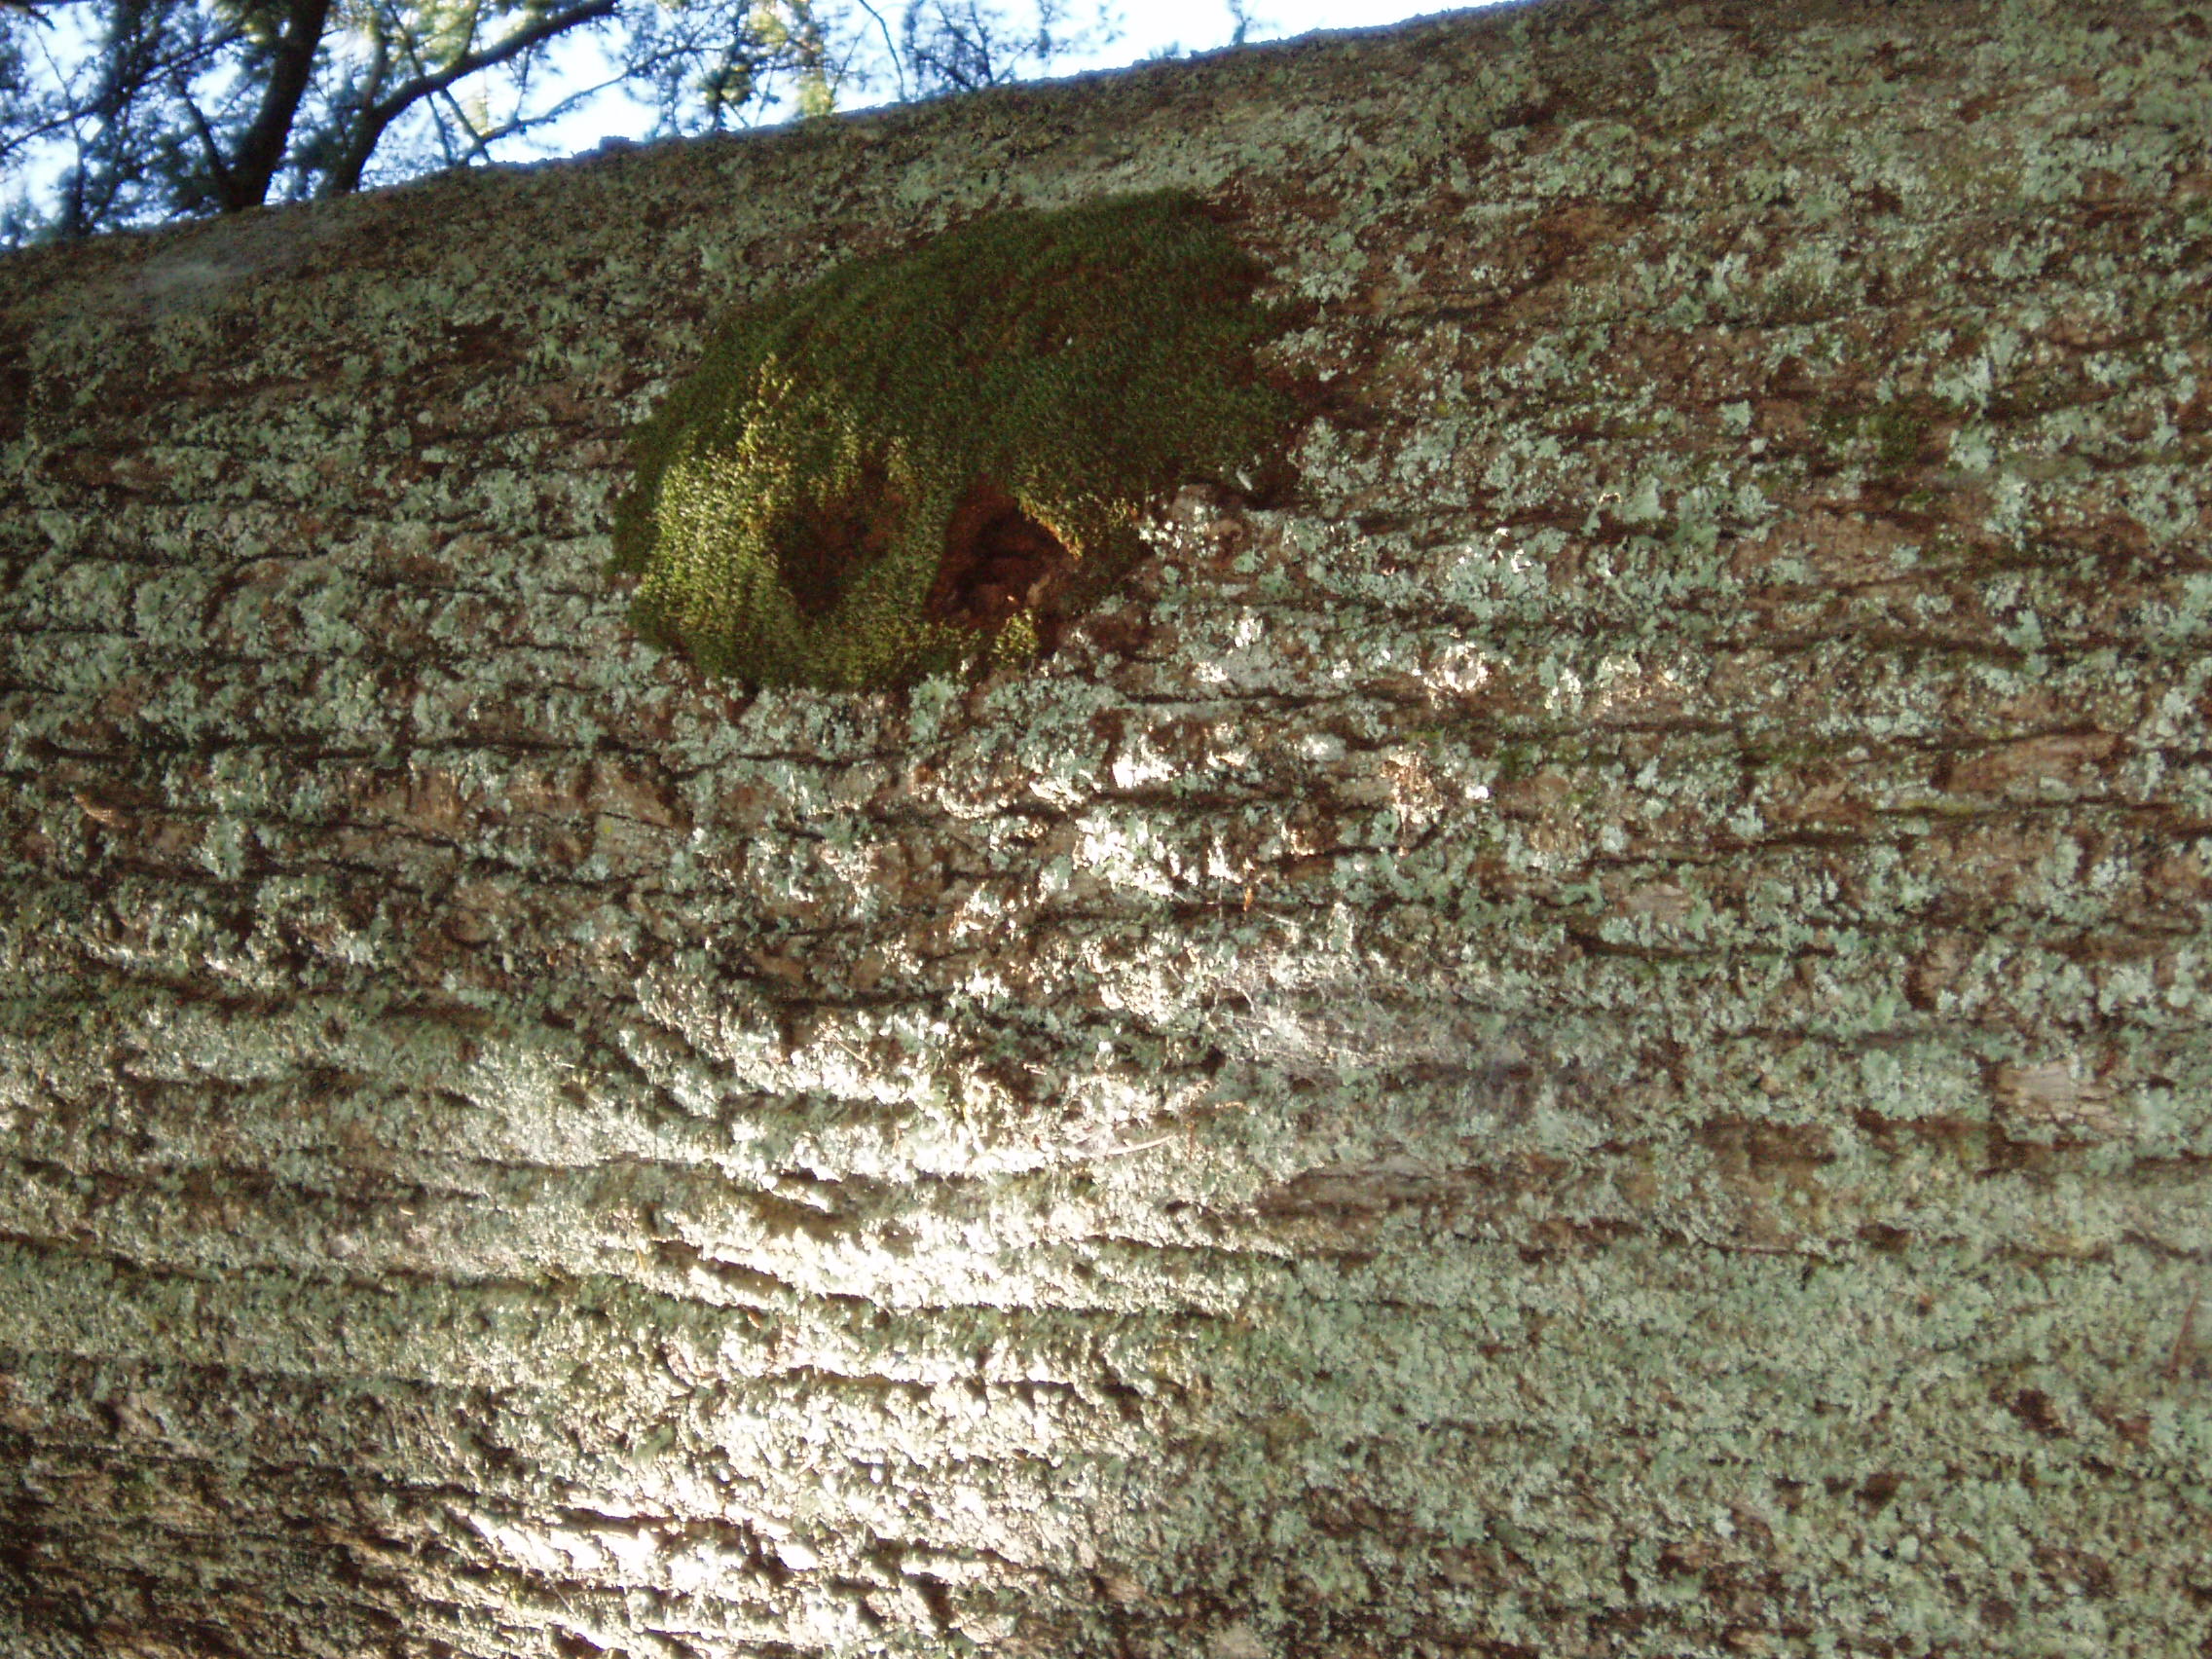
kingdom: Plantae
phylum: Bryophyta
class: Bryopsida
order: Bryales
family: Leptostomataceae
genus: Leptostomum
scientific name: Leptostomum macrocarpon
